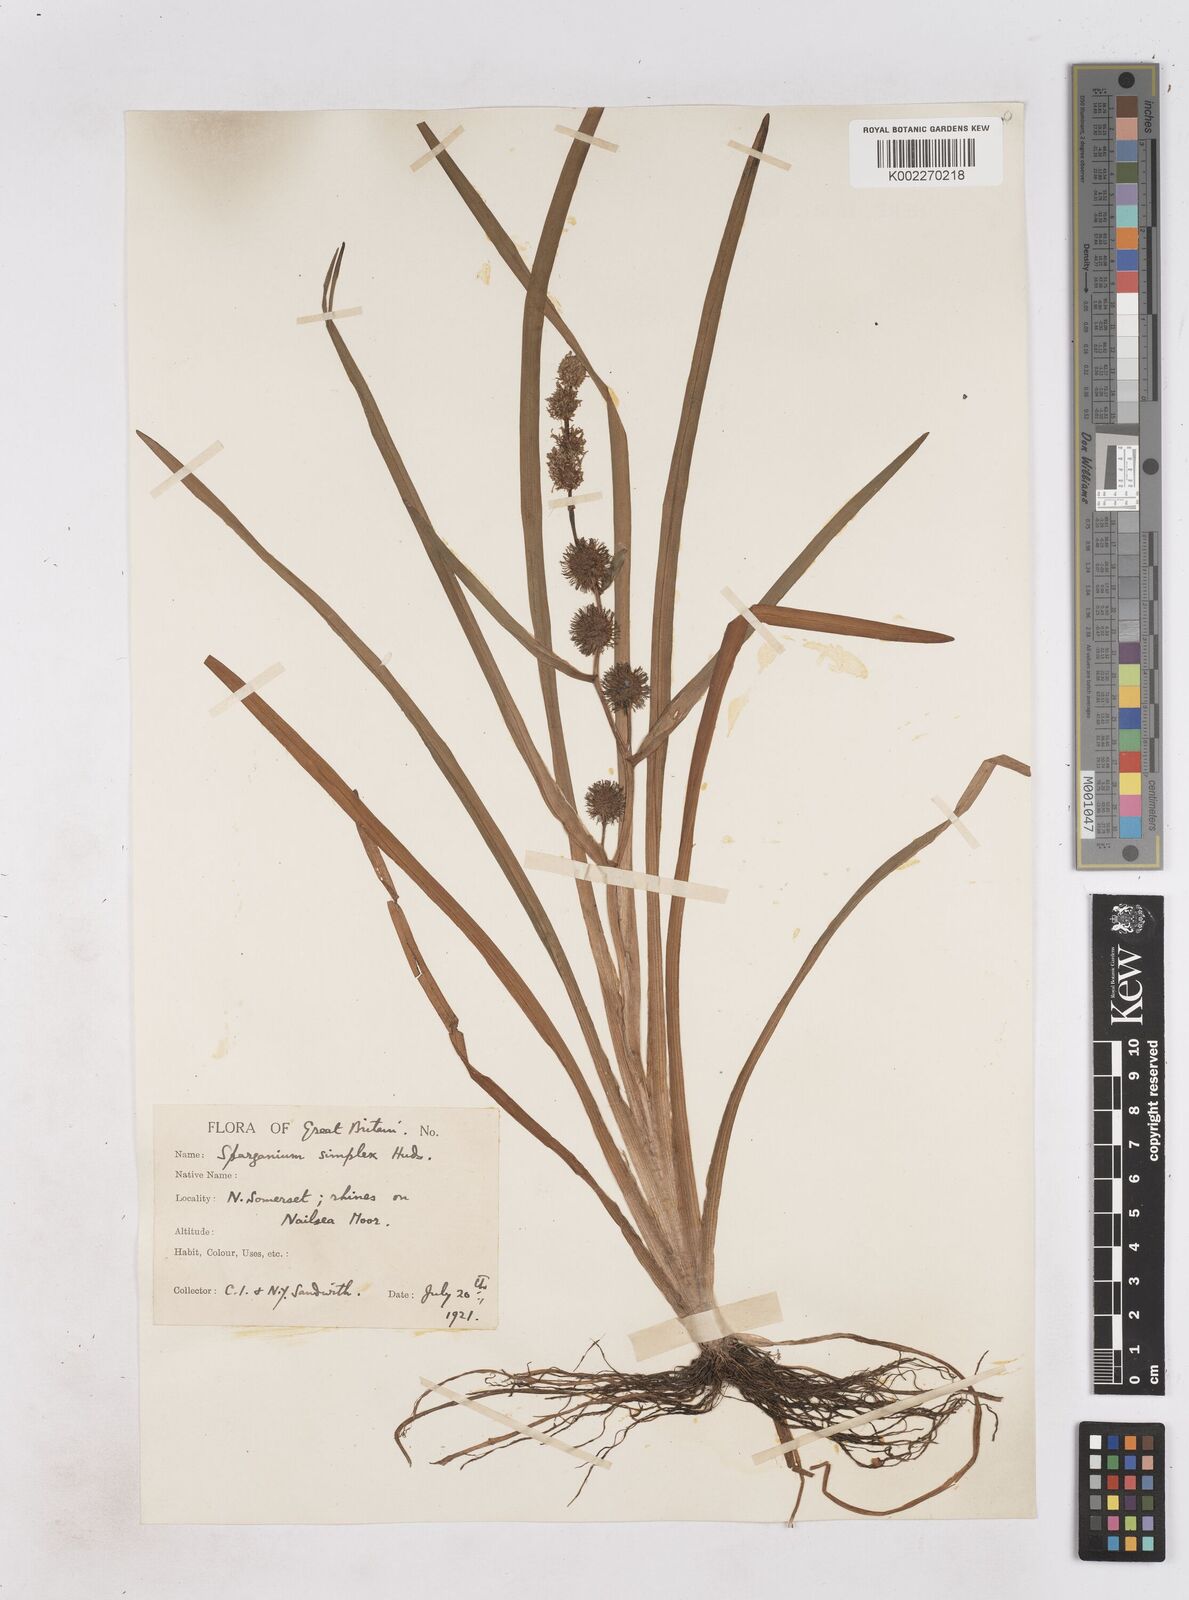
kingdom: Plantae
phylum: Tracheophyta
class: Liliopsida
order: Poales
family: Typhaceae
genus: Sparganium
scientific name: Sparganium emersum
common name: Unbranched bur-reed
